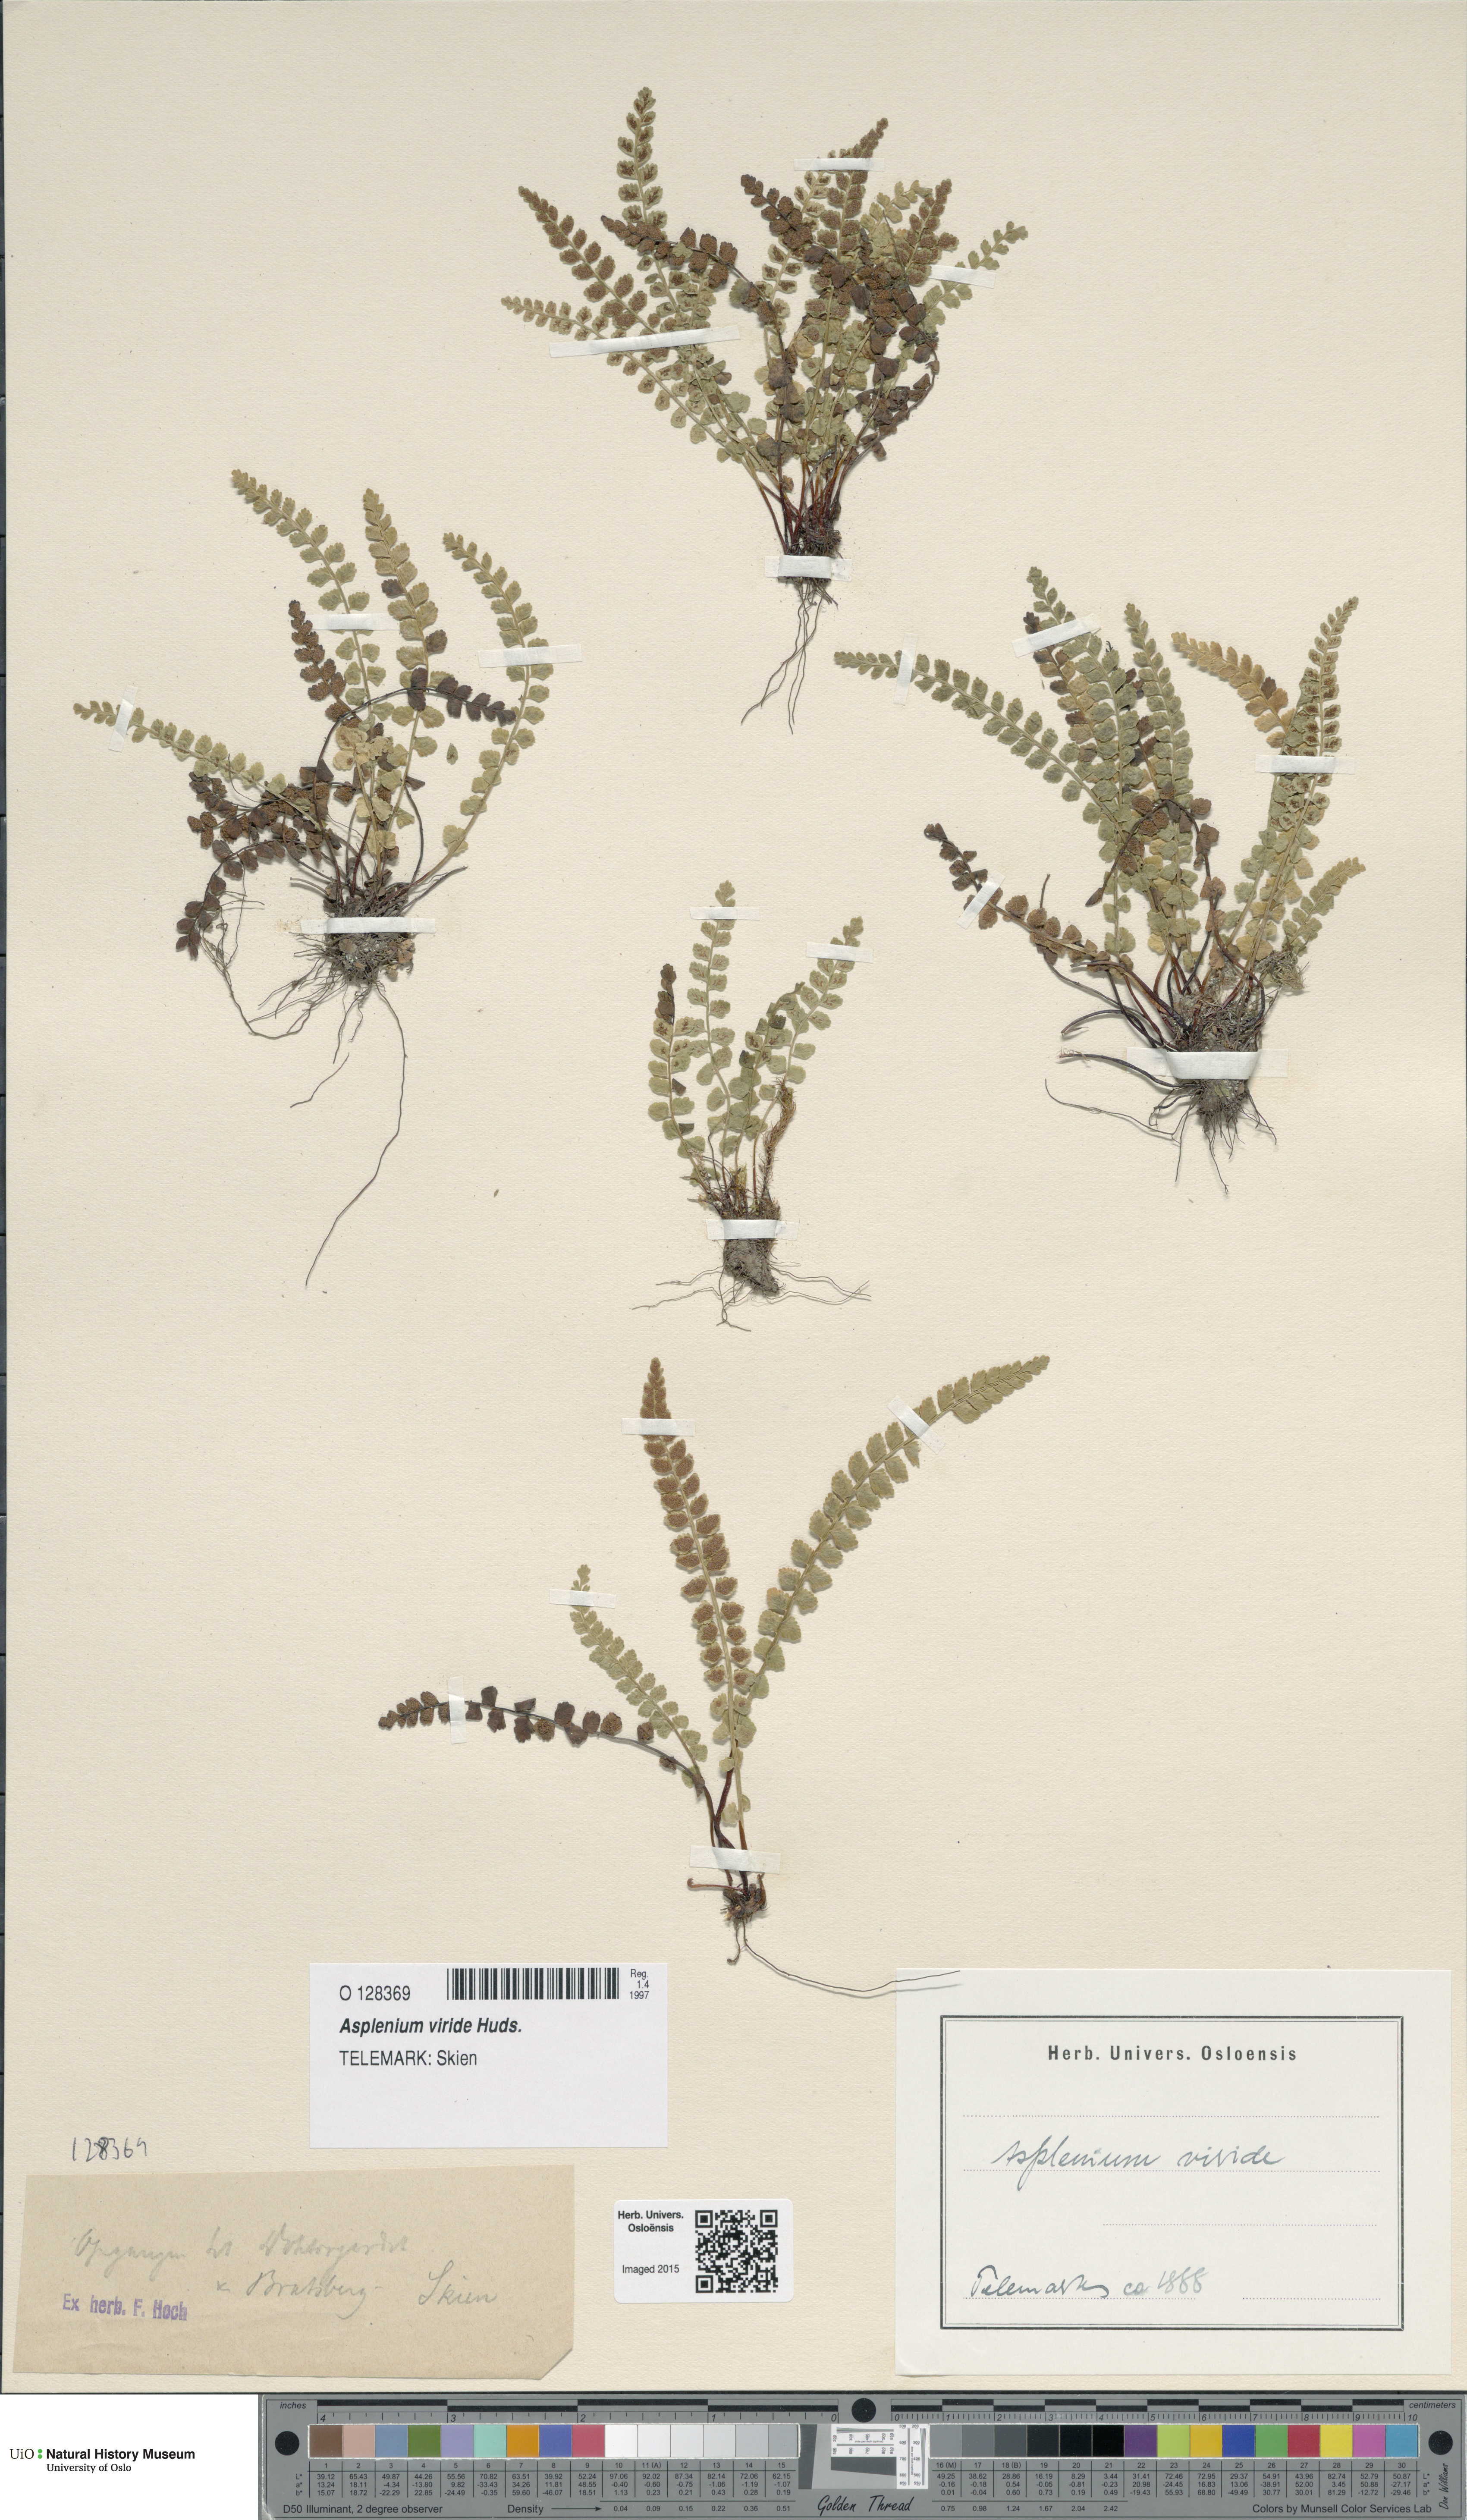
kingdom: Plantae
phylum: Tracheophyta
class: Polypodiopsida
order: Polypodiales
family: Aspleniaceae
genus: Asplenium
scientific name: Asplenium viride
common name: Green spleenwort
